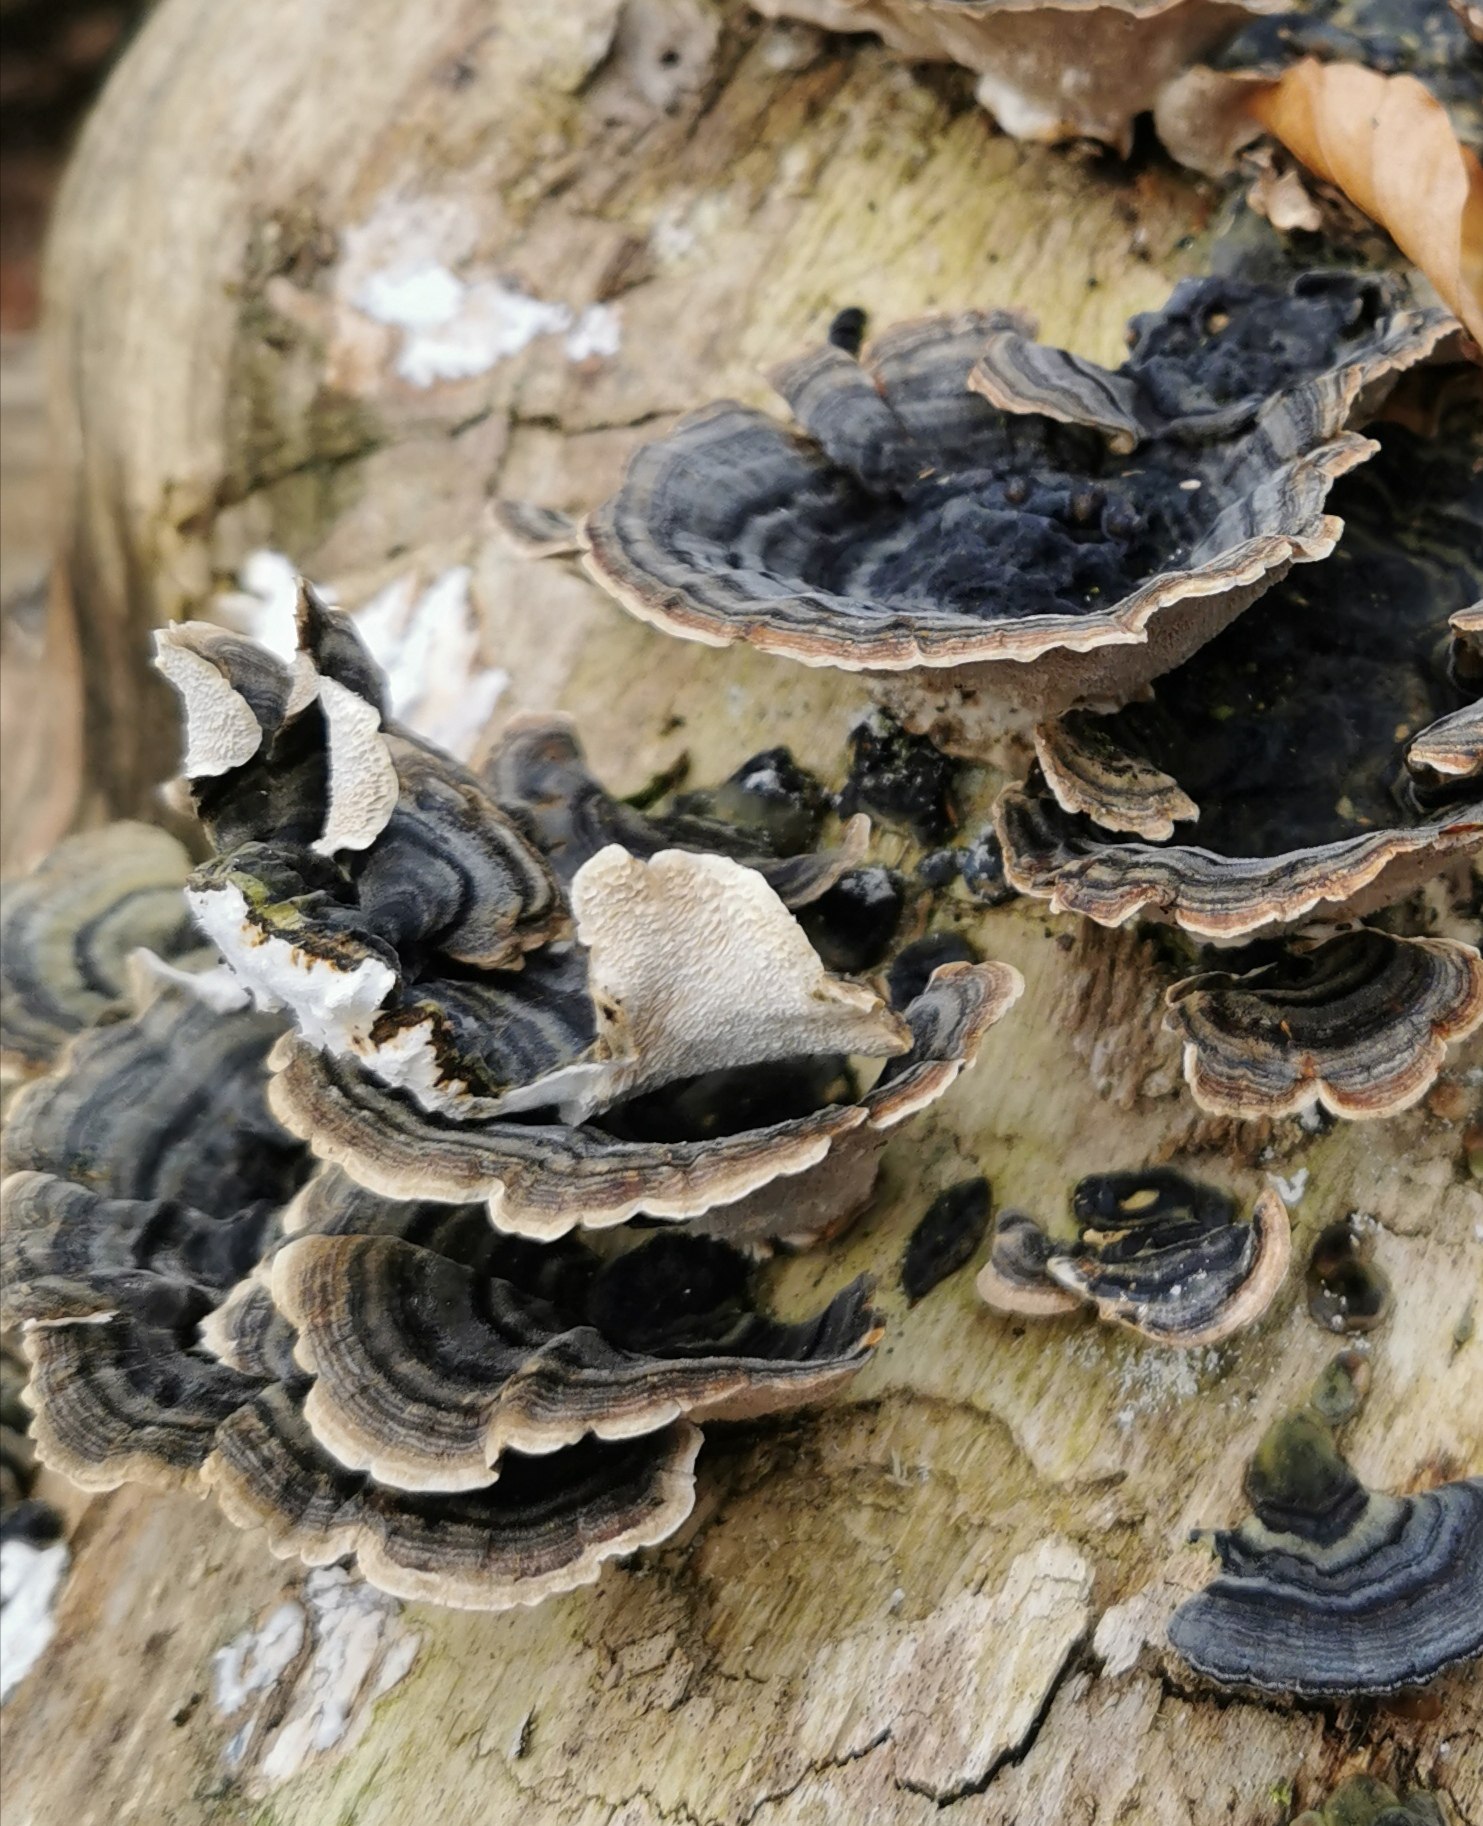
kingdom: Fungi
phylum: Basidiomycota
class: Agaricomycetes
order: Polyporales
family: Polyporaceae
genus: Trametes
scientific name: Trametes versicolor
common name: broget læderporesvamp
